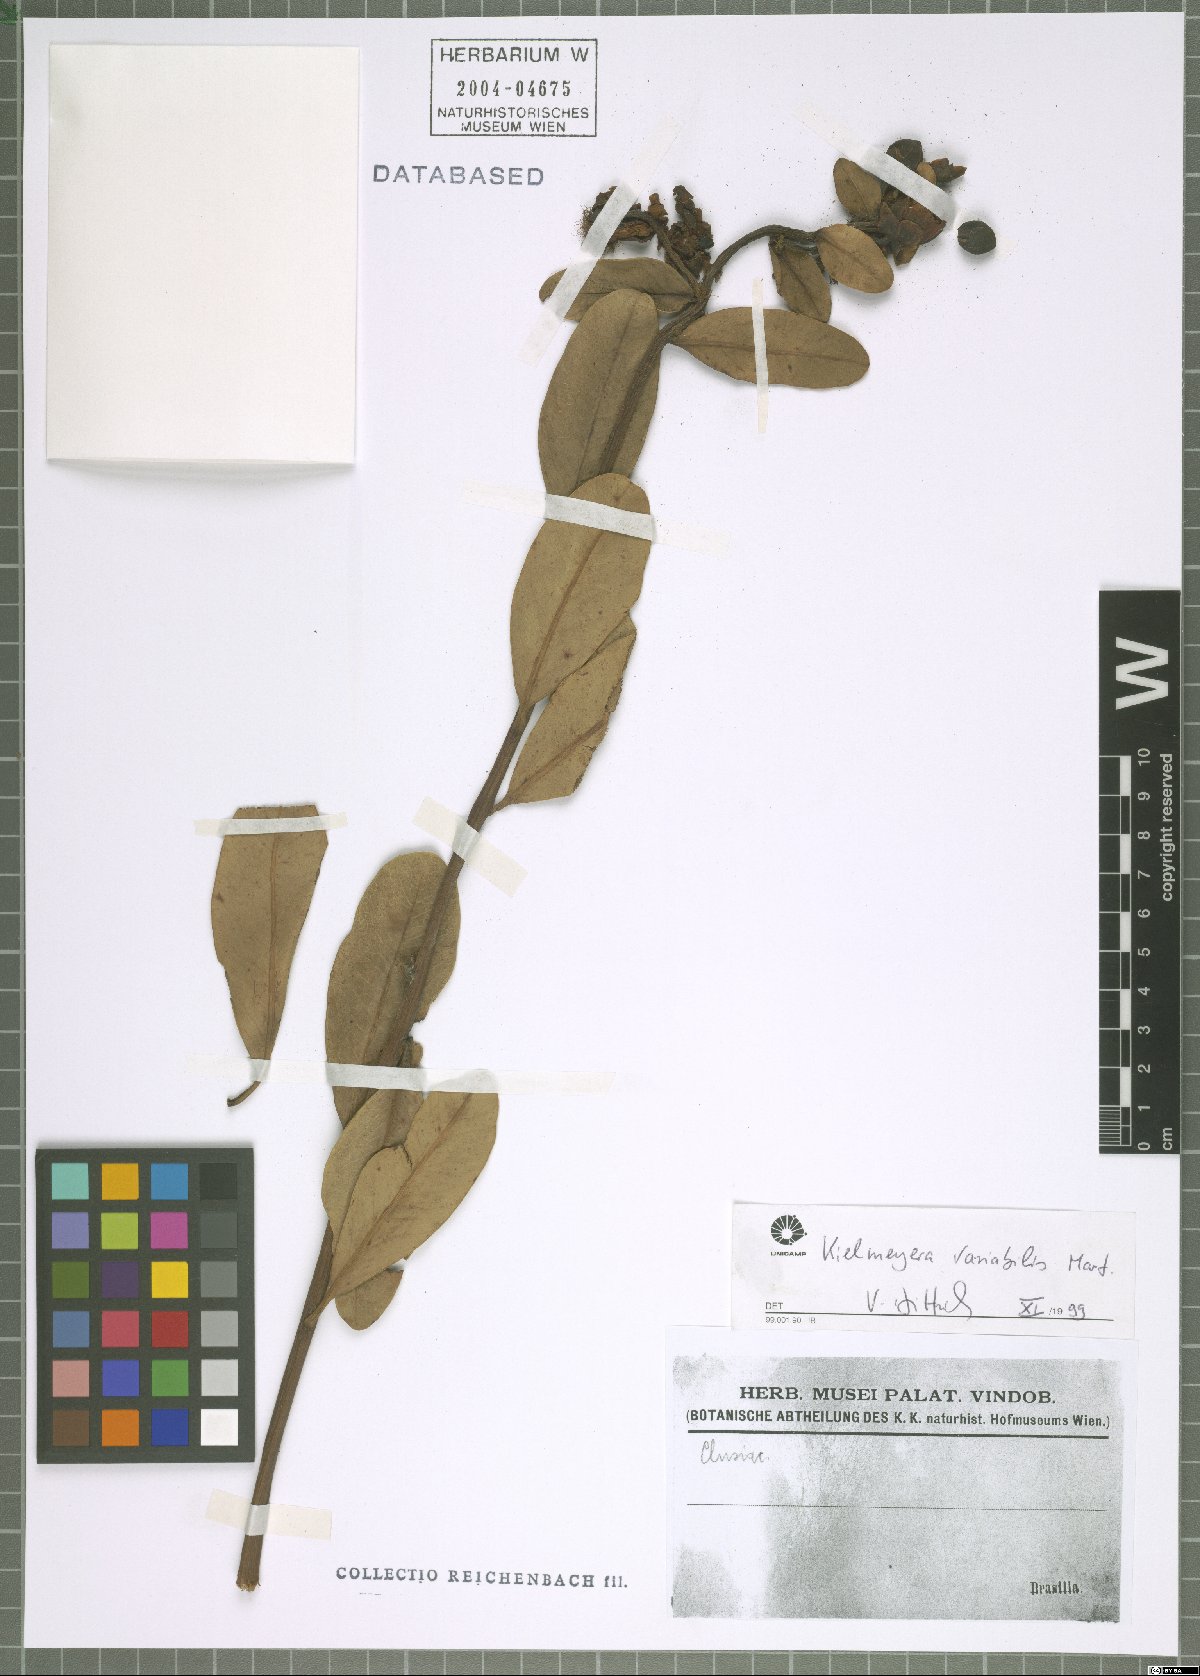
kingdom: Plantae
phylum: Tracheophyta
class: Magnoliopsida
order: Malpighiales
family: Calophyllaceae
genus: Kielmeyera
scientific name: Kielmeyera variabilis
